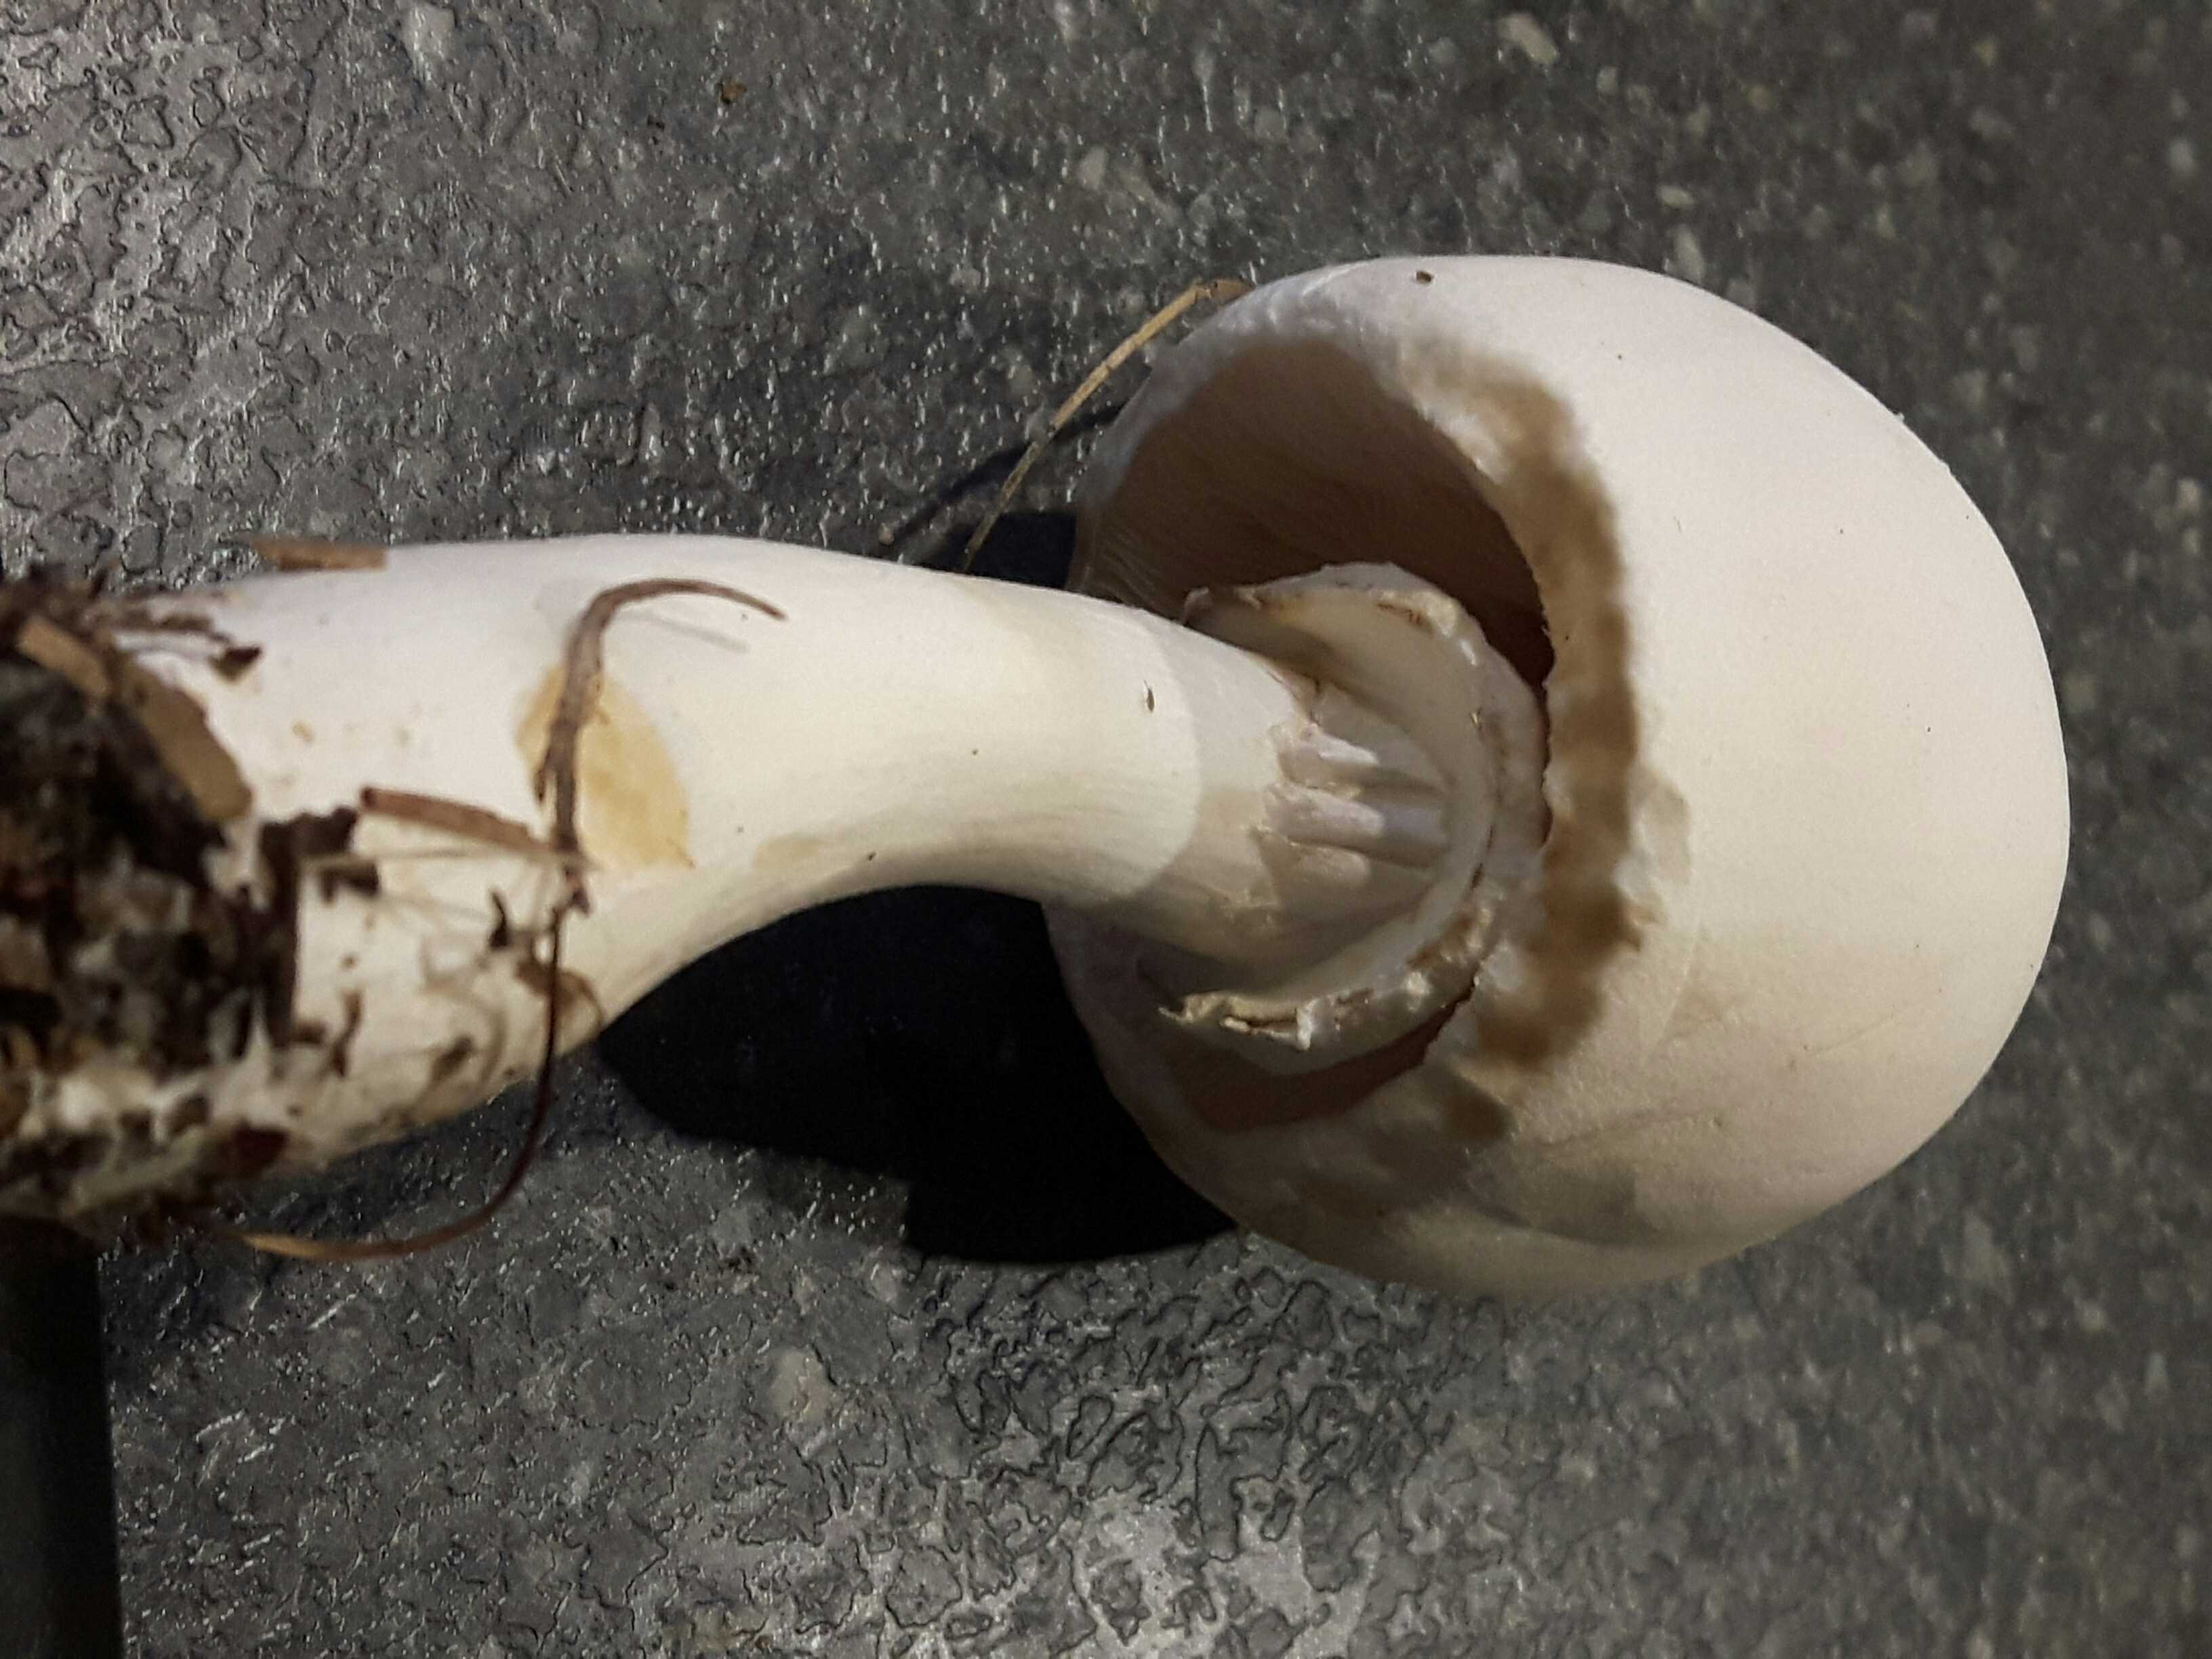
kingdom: Fungi
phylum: Basidiomycota
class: Agaricomycetes
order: Agaricales
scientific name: Agaricales
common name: champignonordenen
